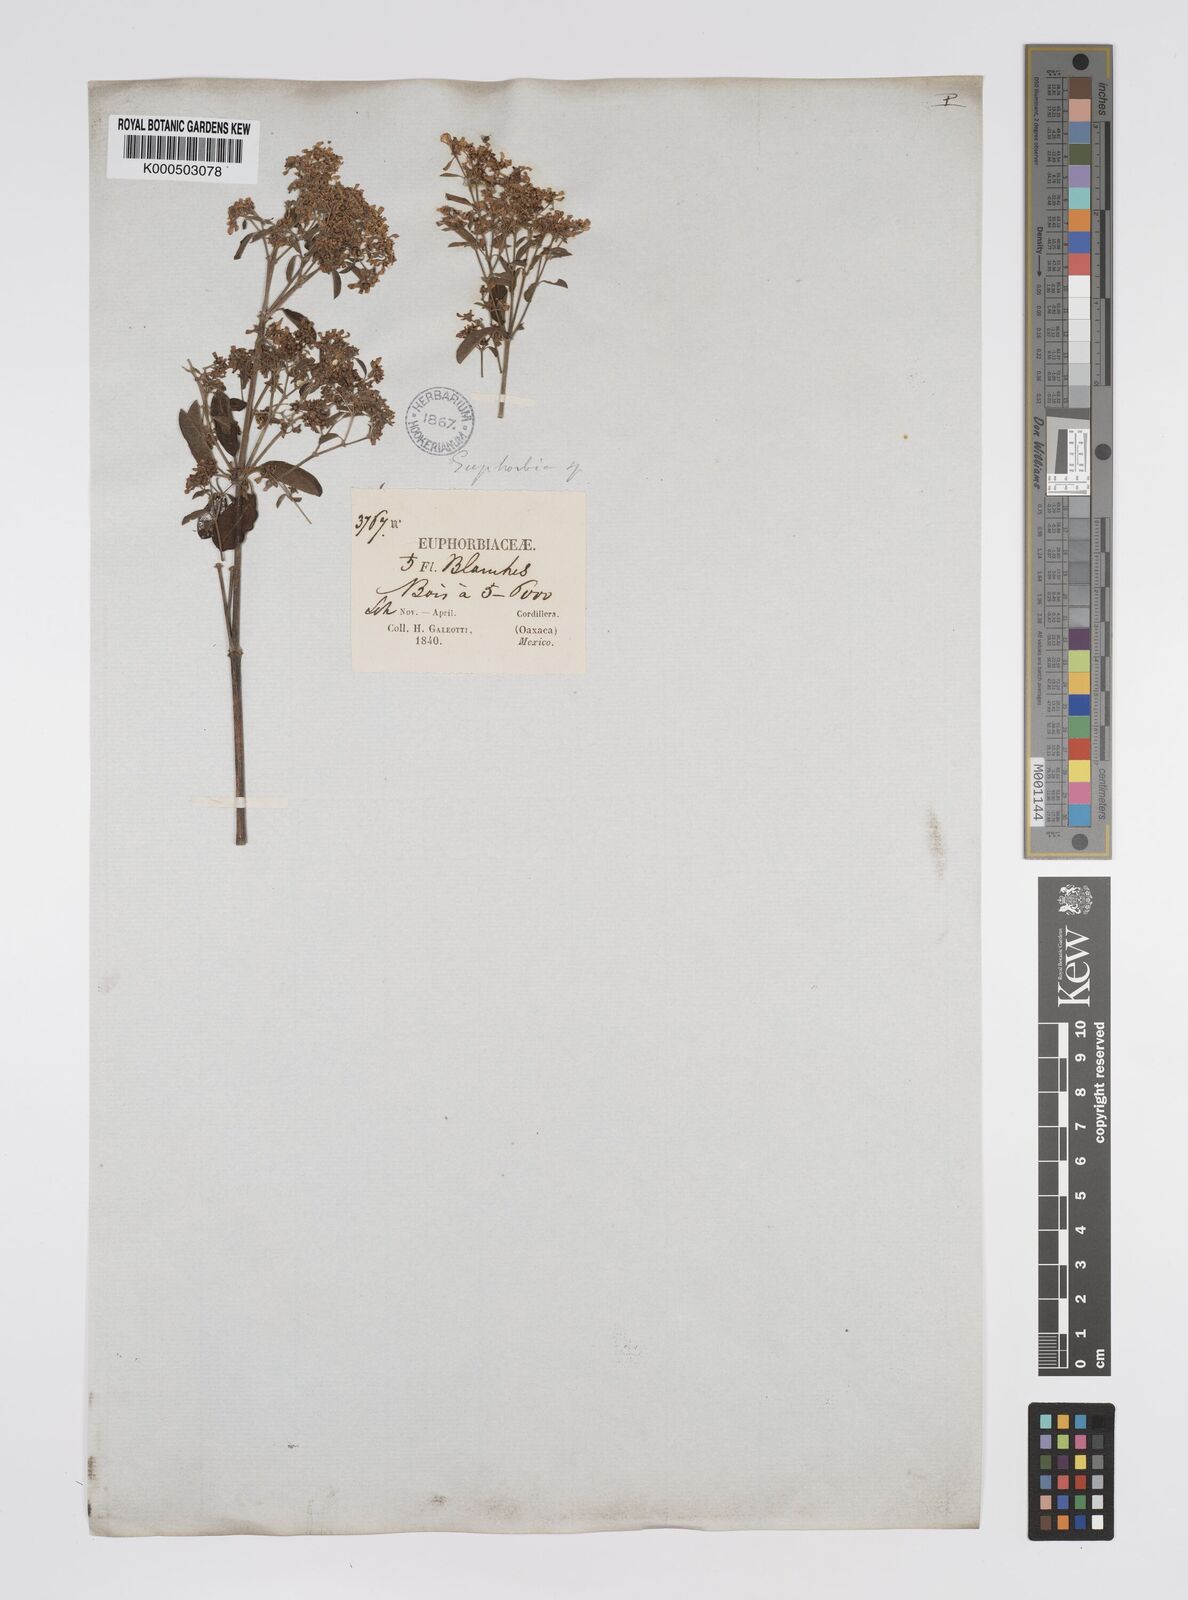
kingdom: Plantae
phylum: Tracheophyta
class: Magnoliopsida
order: Malpighiales
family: Euphorbiaceae
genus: Euphorbia
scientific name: Euphorbia
